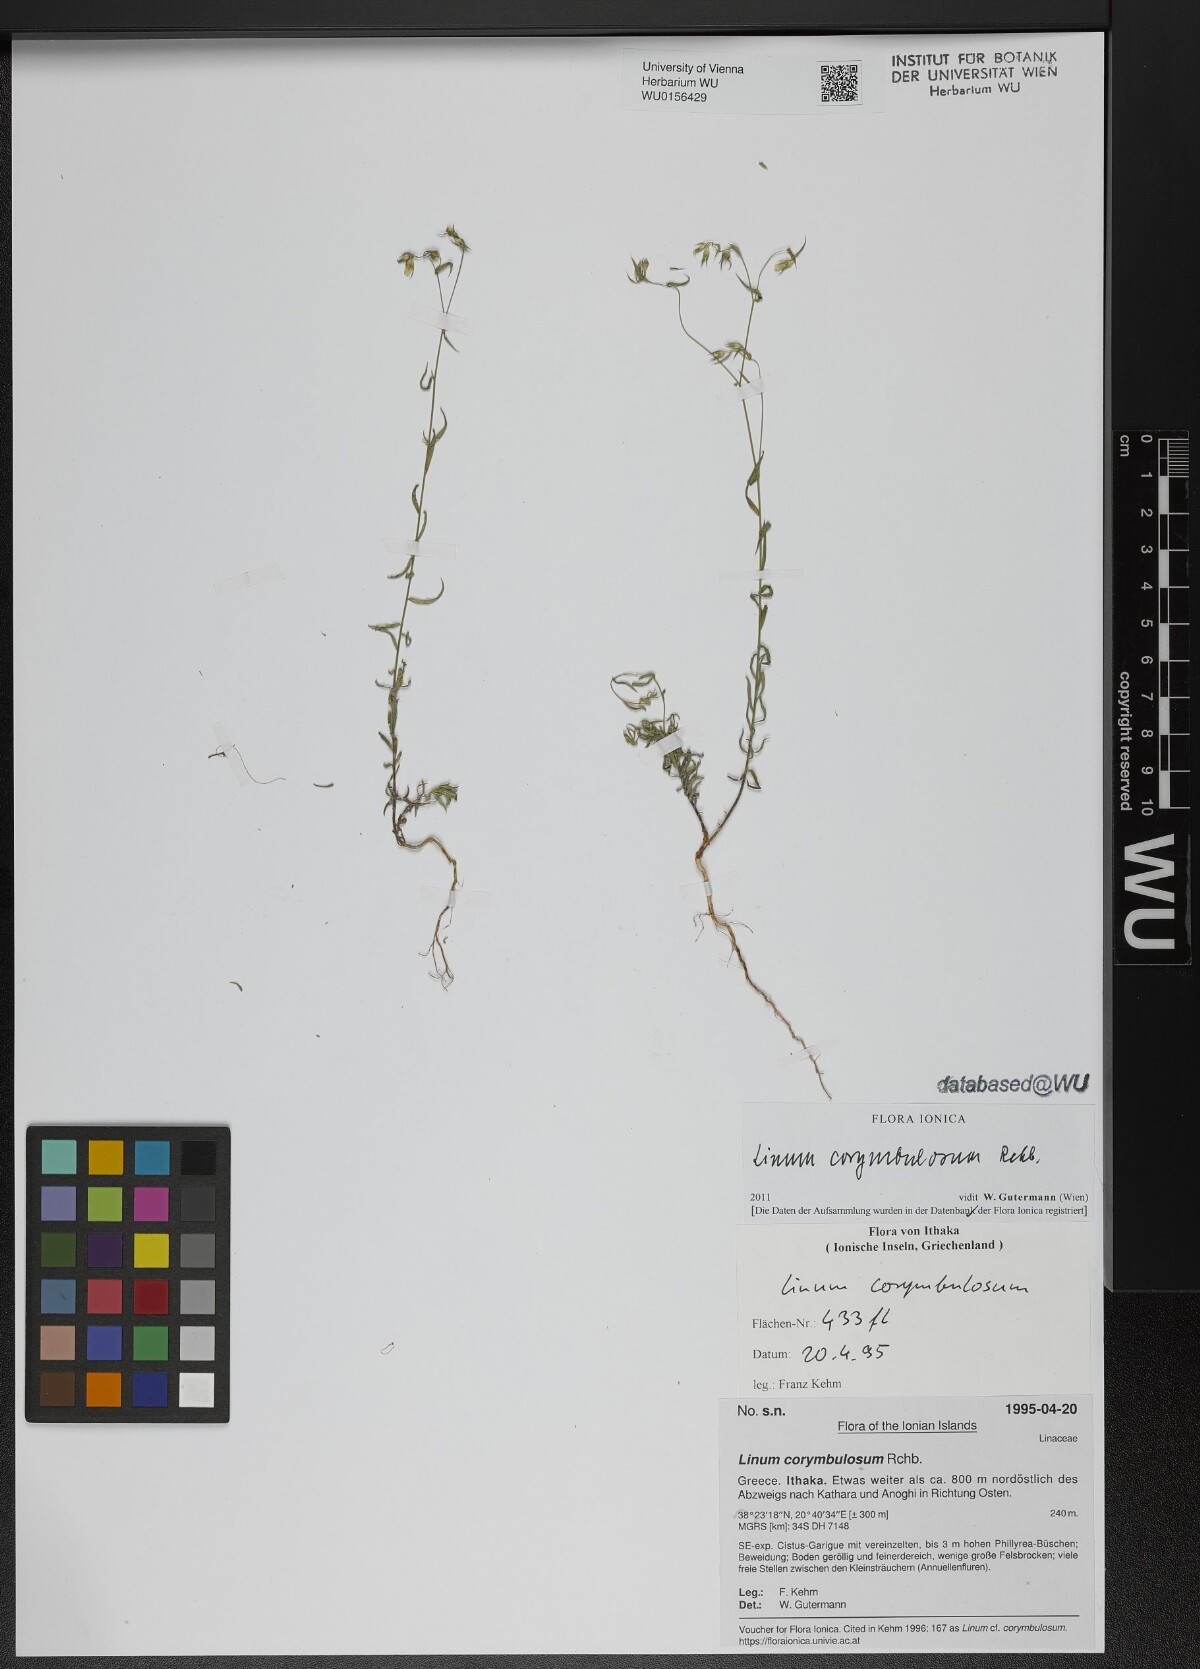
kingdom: Plantae
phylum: Tracheophyta
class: Magnoliopsida
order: Malpighiales
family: Linaceae
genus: Linum
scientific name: Linum corymbulosum
